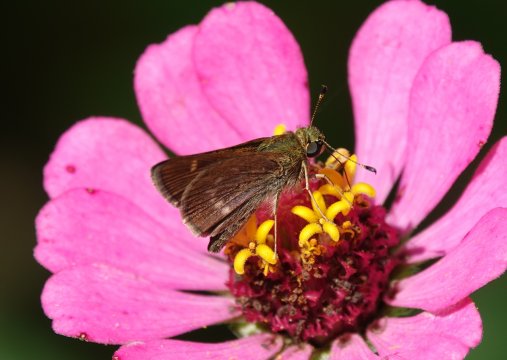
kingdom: Animalia
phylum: Arthropoda
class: Insecta
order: Lepidoptera
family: Hesperiidae
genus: Vernia
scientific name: Vernia verna
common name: Little Glassywing
